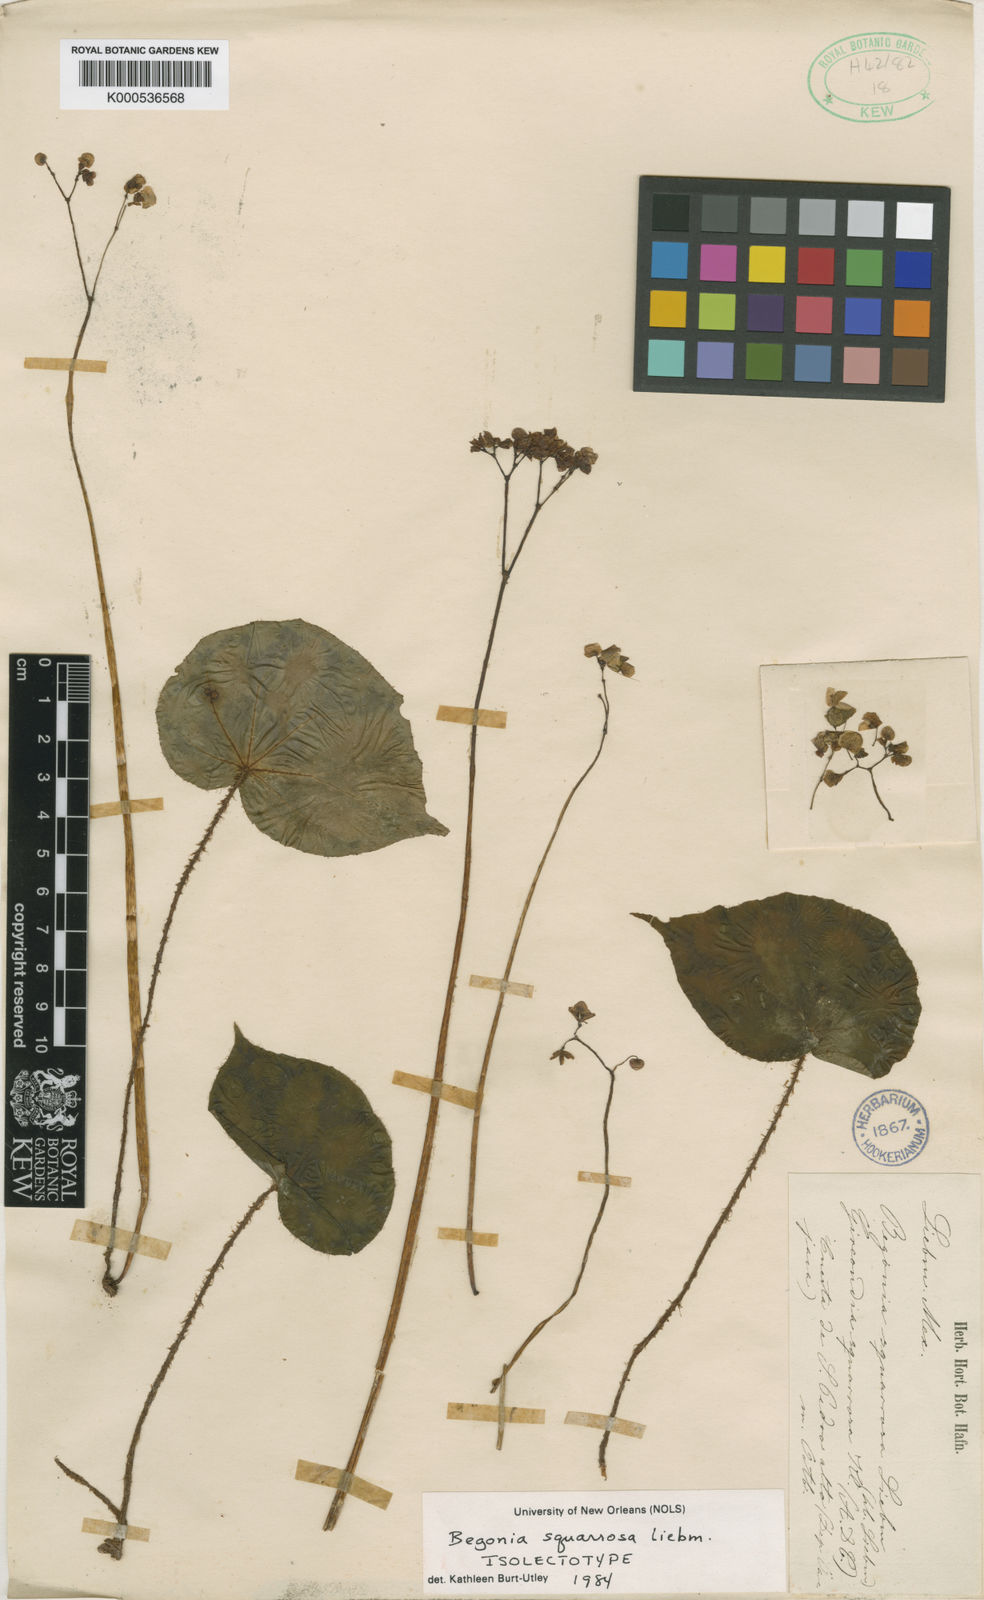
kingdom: Plantae
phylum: Tracheophyta
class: Magnoliopsida
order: Cucurbitales
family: Begoniaceae
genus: Begonia
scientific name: Begonia squarrosa
